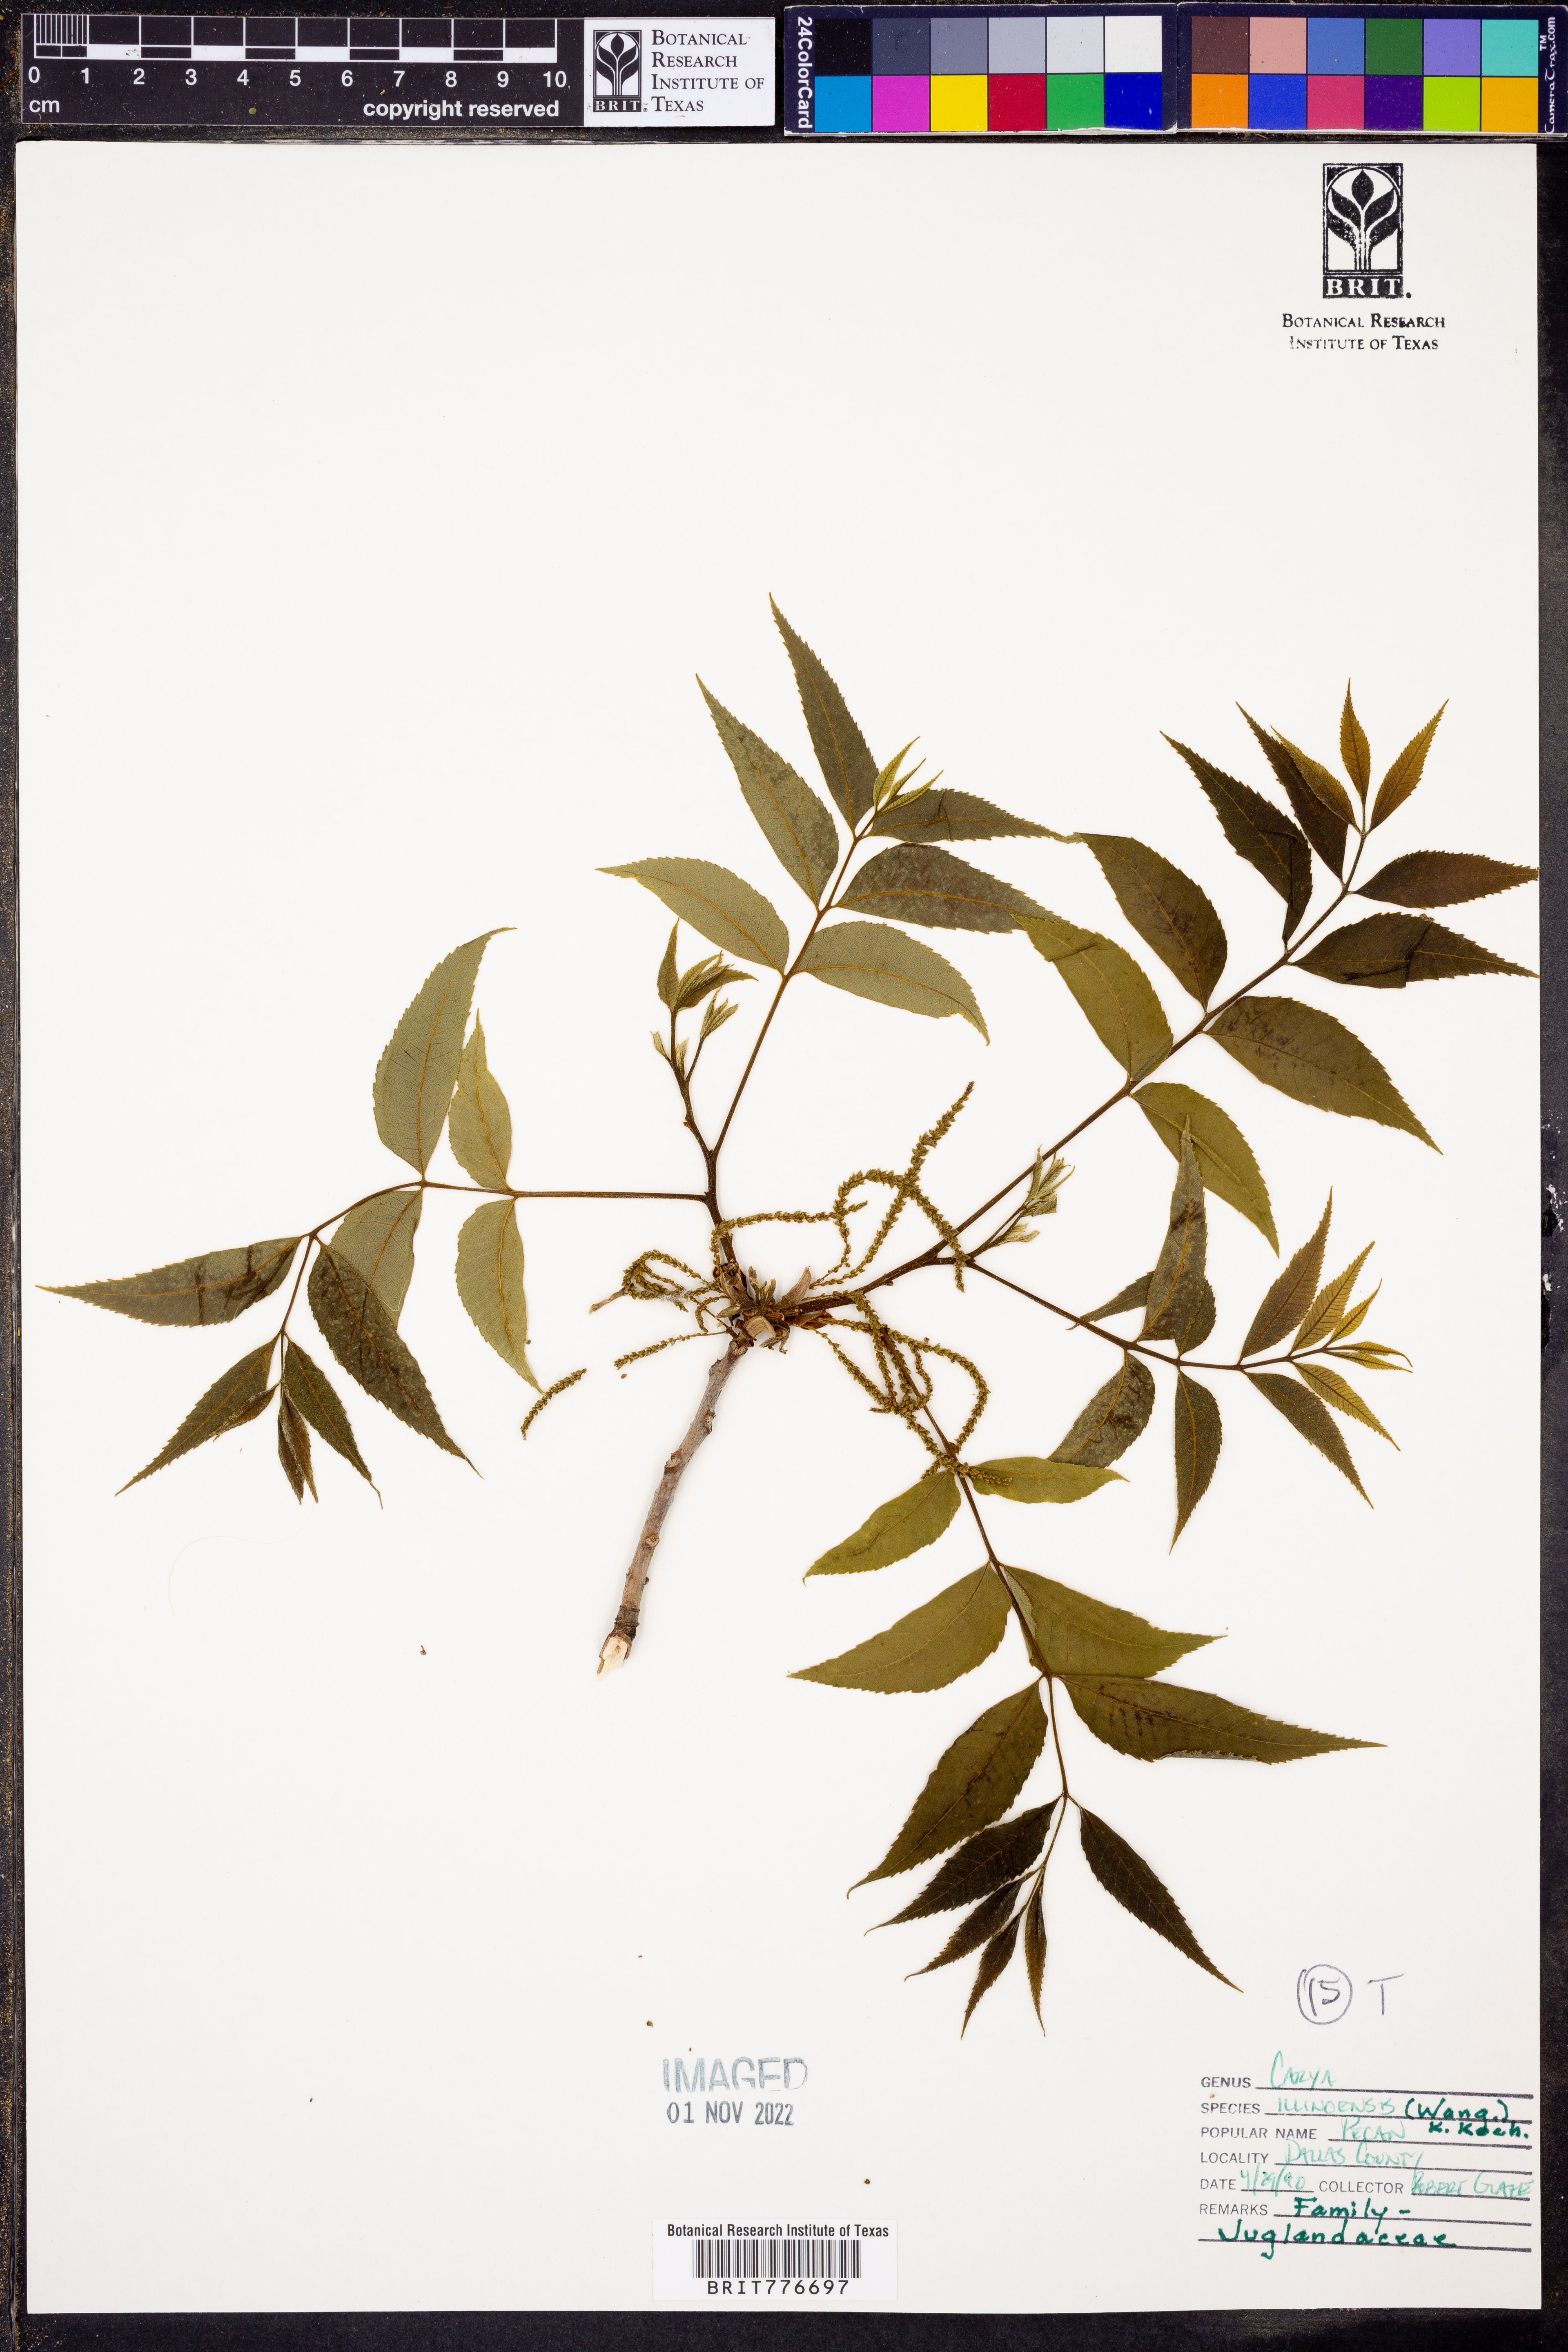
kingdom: Plantae
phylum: Tracheophyta
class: Magnoliopsida
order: Fagales
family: Juglandaceae
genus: Carya
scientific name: Carya
